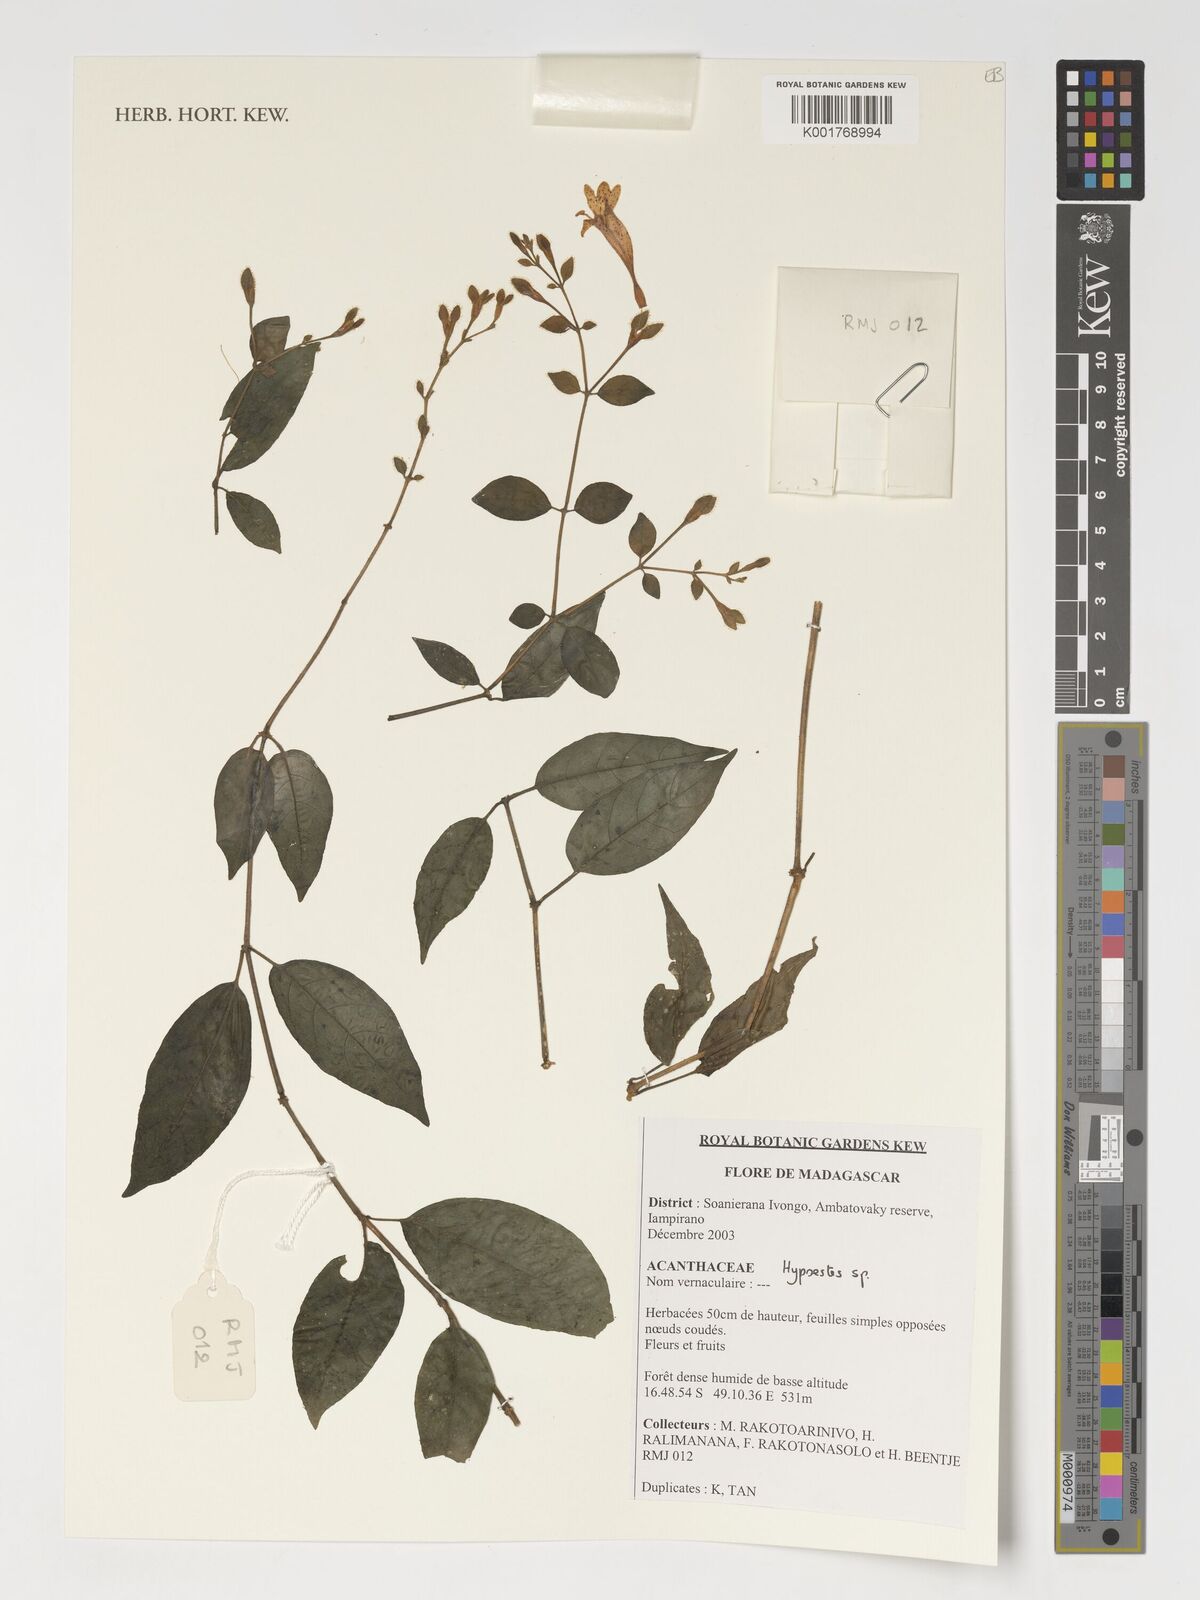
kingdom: Plantae
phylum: Tracheophyta
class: Magnoliopsida
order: Lamiales
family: Acanthaceae
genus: Hypoestes
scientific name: Hypoestes
